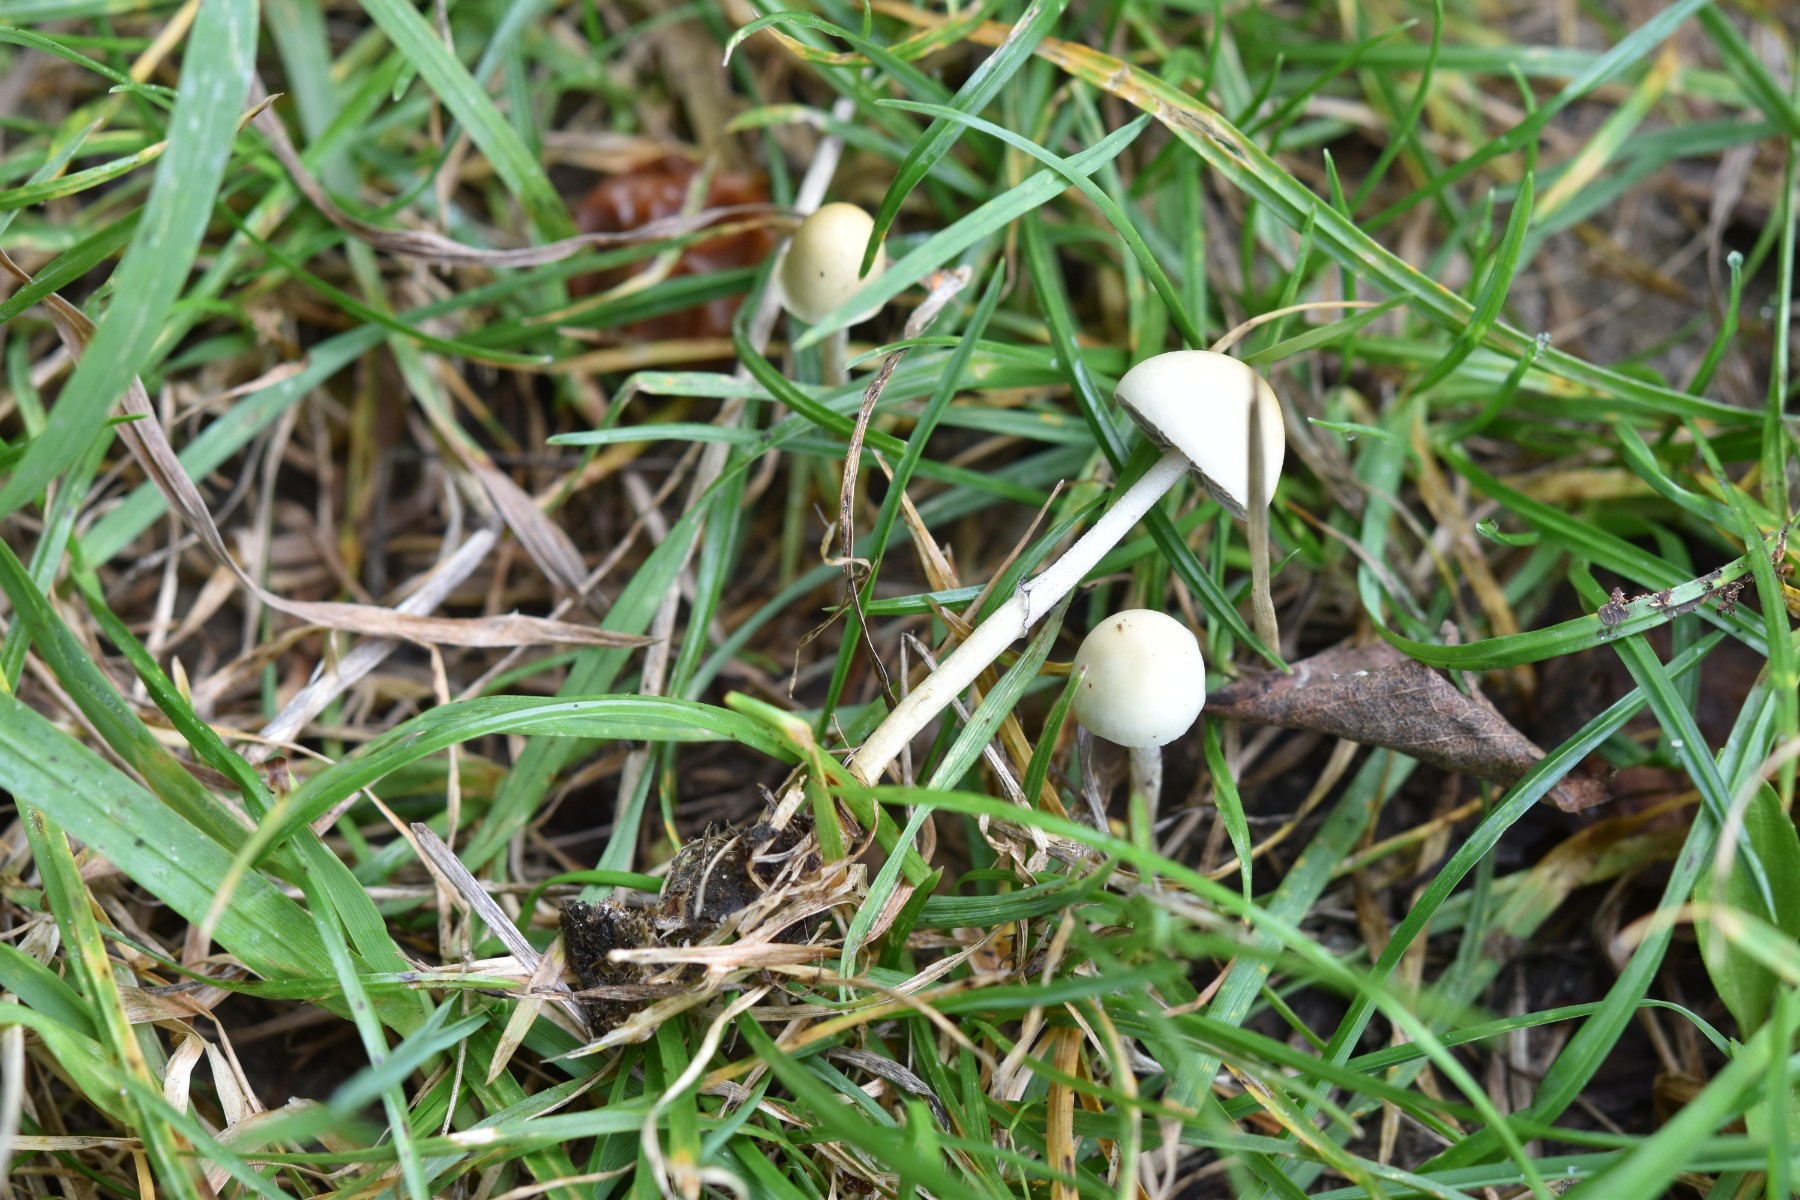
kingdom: Fungi
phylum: Basidiomycota
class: Agaricomycetes
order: Agaricales
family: Strophariaceae
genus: Protostropharia
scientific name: Protostropharia semiglobata
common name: halvkugleformet bredblad
